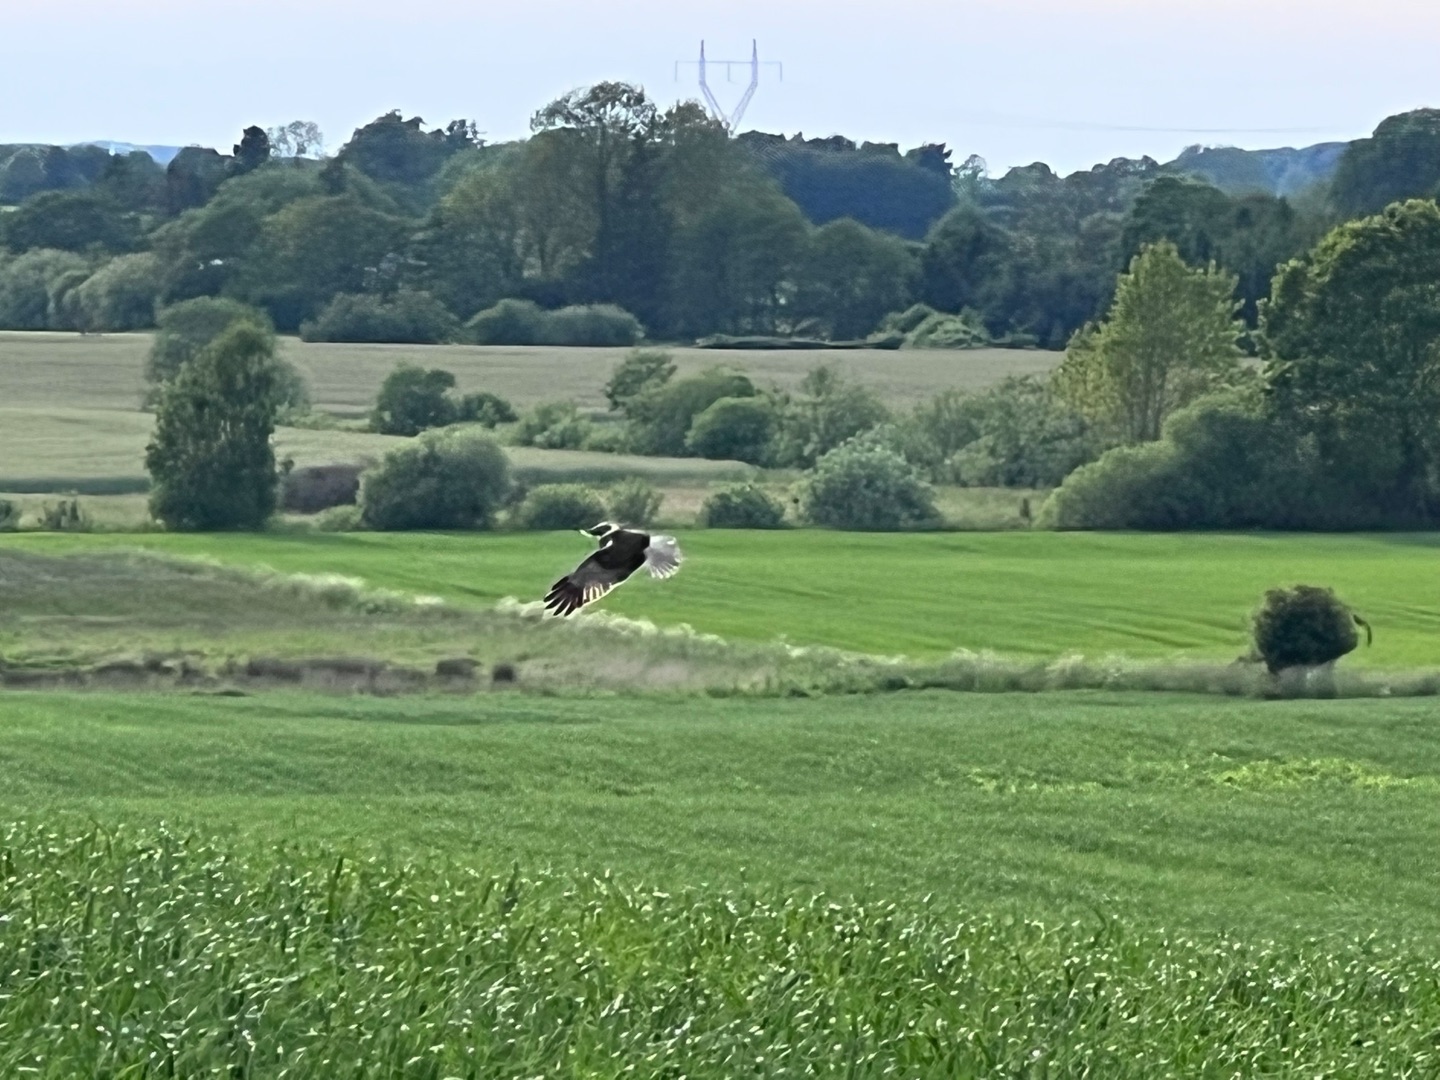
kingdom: Animalia
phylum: Chordata
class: Aves
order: Accipitriformes
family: Accipitridae
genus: Circus
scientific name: Circus aeruginosus
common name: Rørhøg
